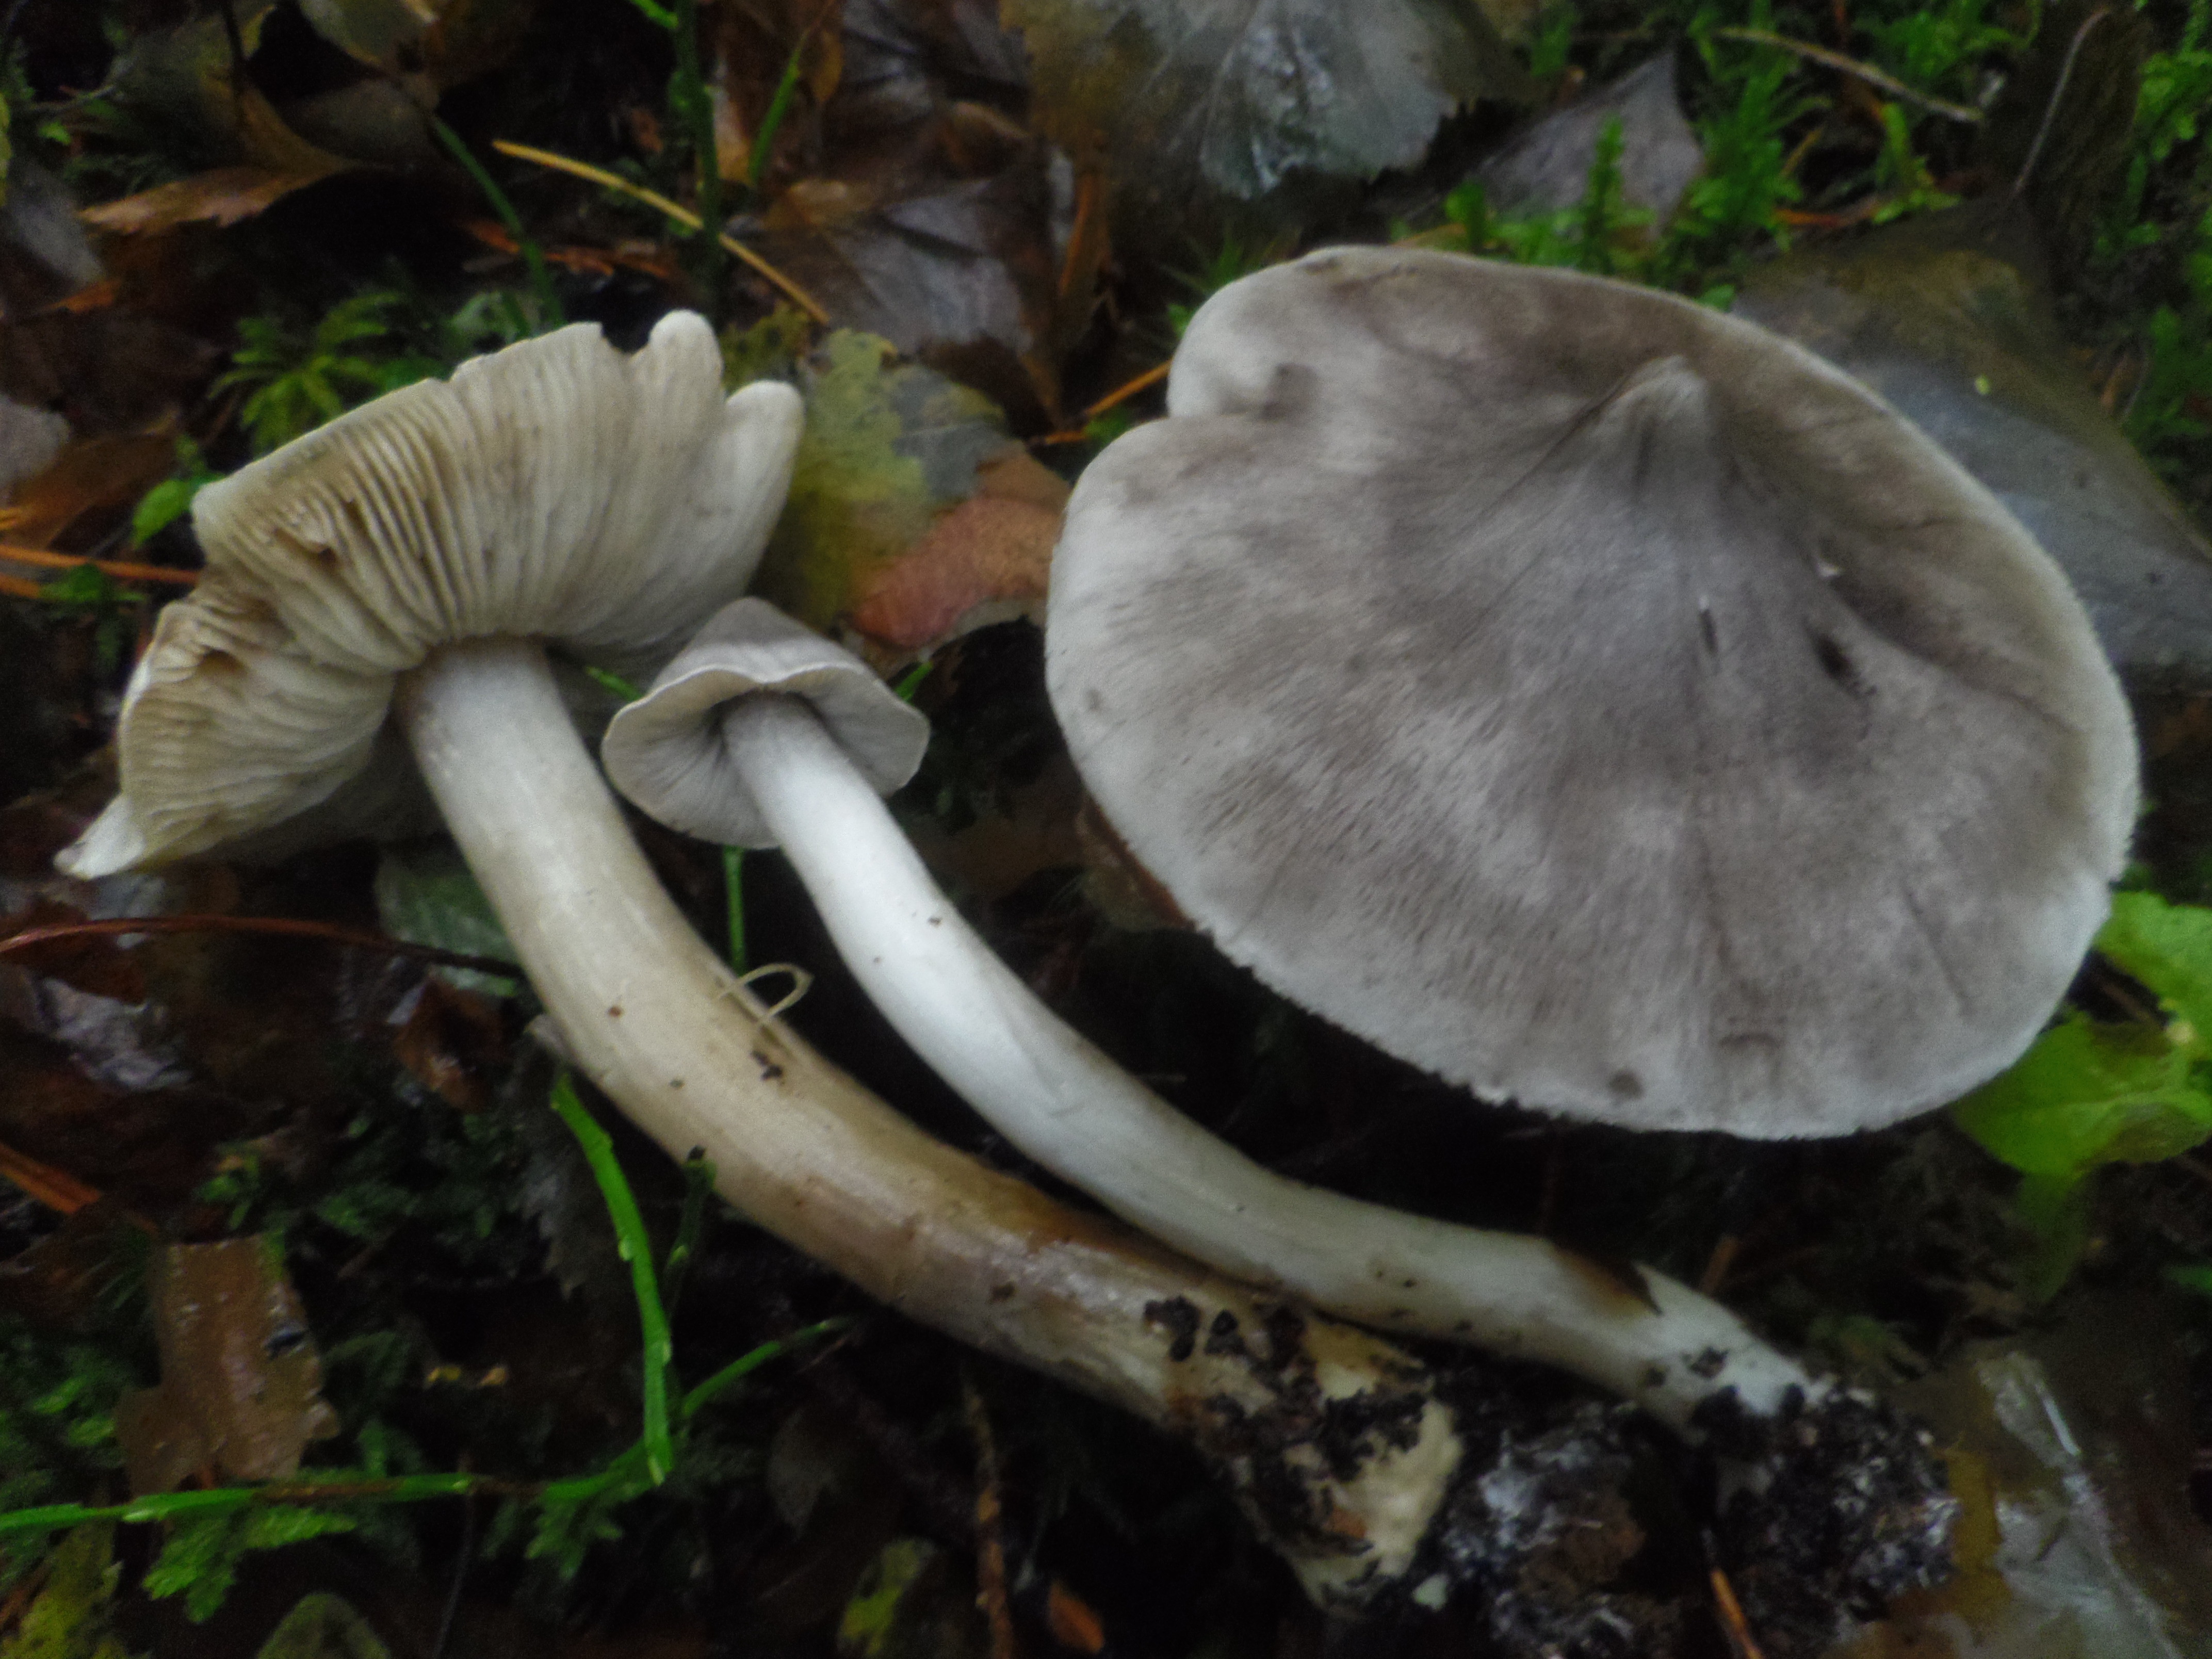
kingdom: Fungi
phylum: Basidiomycota
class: Agaricomycetes
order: Agaricales
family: Tricholomataceae
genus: Tricholoma
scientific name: Tricholoma virgatum
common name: Ashen knight
